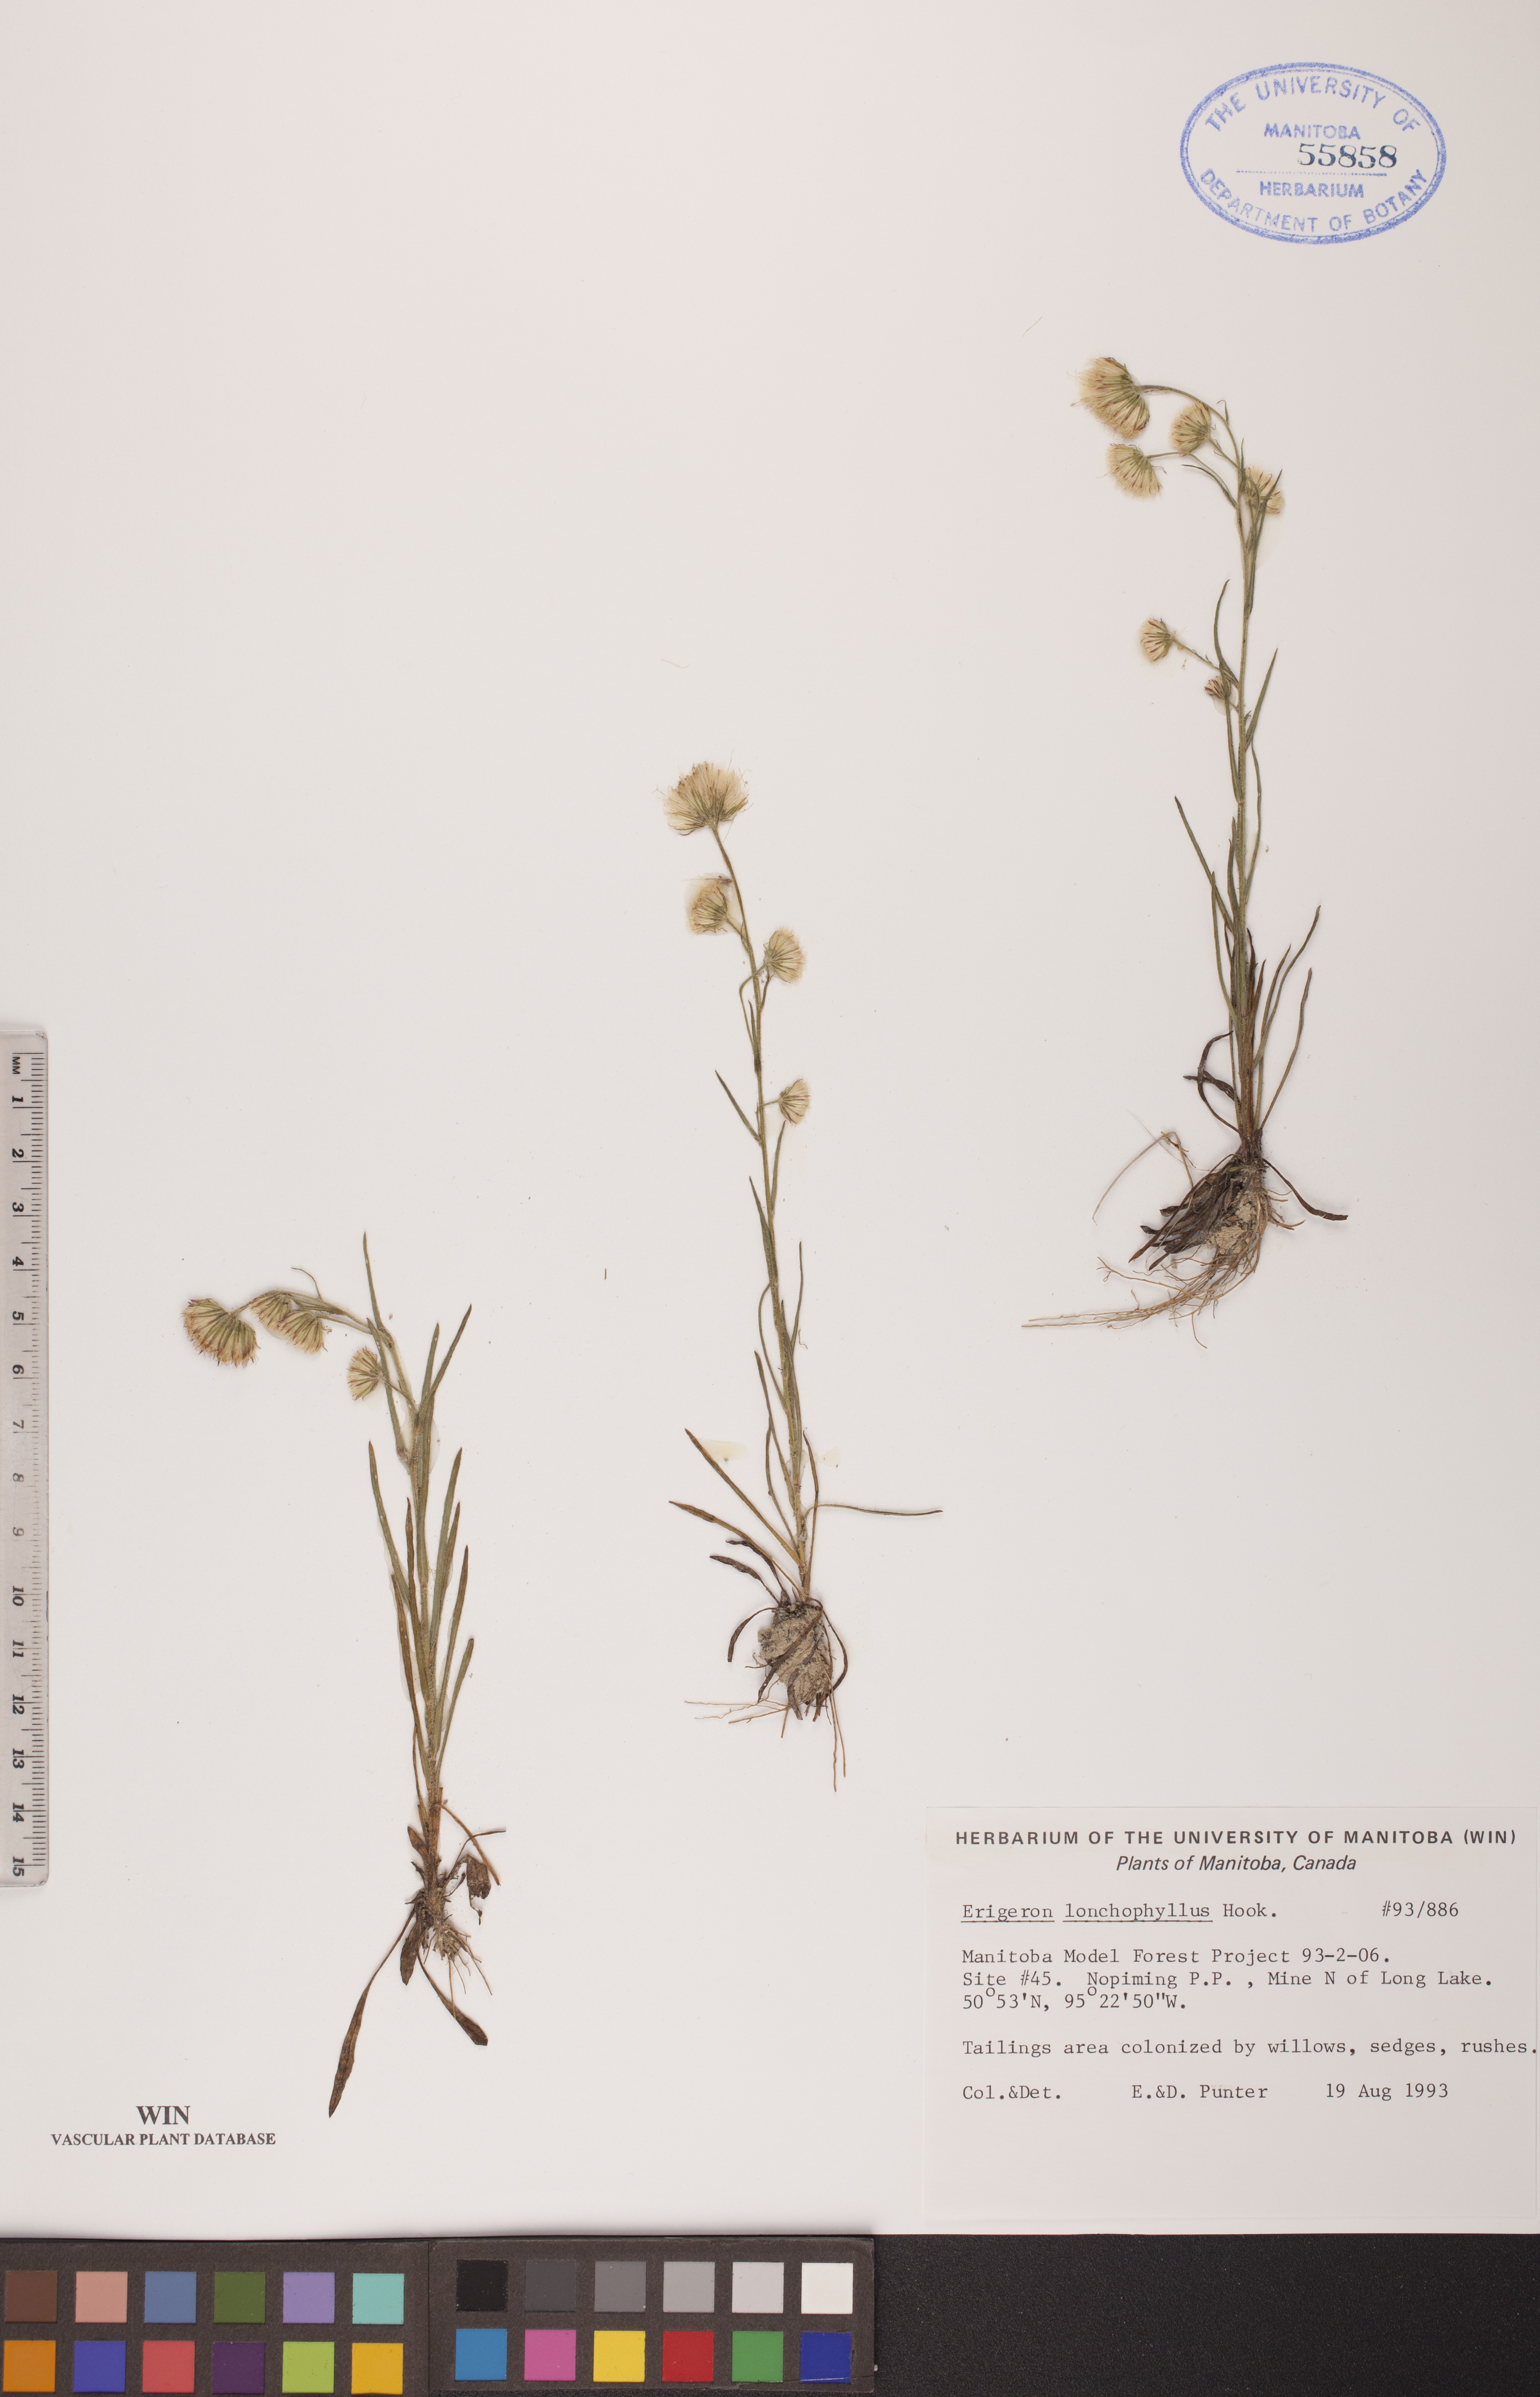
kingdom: Plantae
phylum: Tracheophyta
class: Magnoliopsida
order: Asterales
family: Asteraceae
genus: Erigeron
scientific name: Erigeron lonchophyllus
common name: Short-ray fleabane
